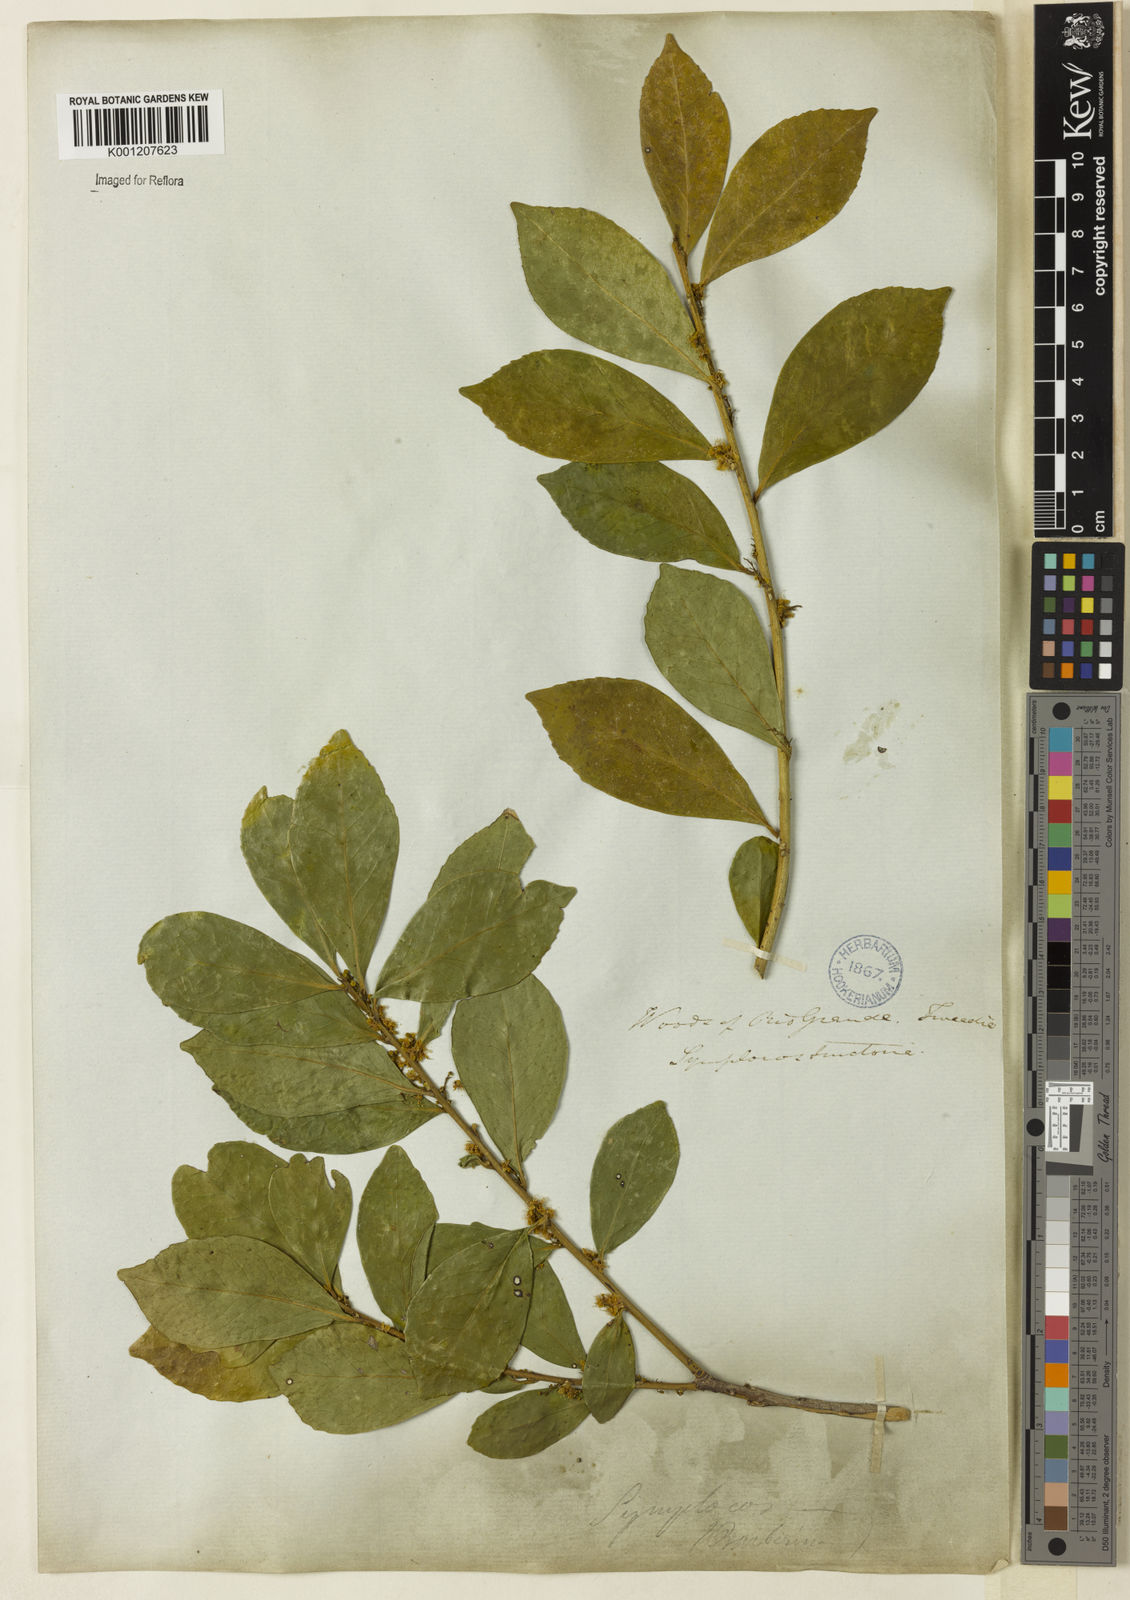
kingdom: Plantae
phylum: Tracheophyta
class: Magnoliopsida
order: Ericales
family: Symplocaceae
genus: Symplocos
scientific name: Symplocos tetrandra
